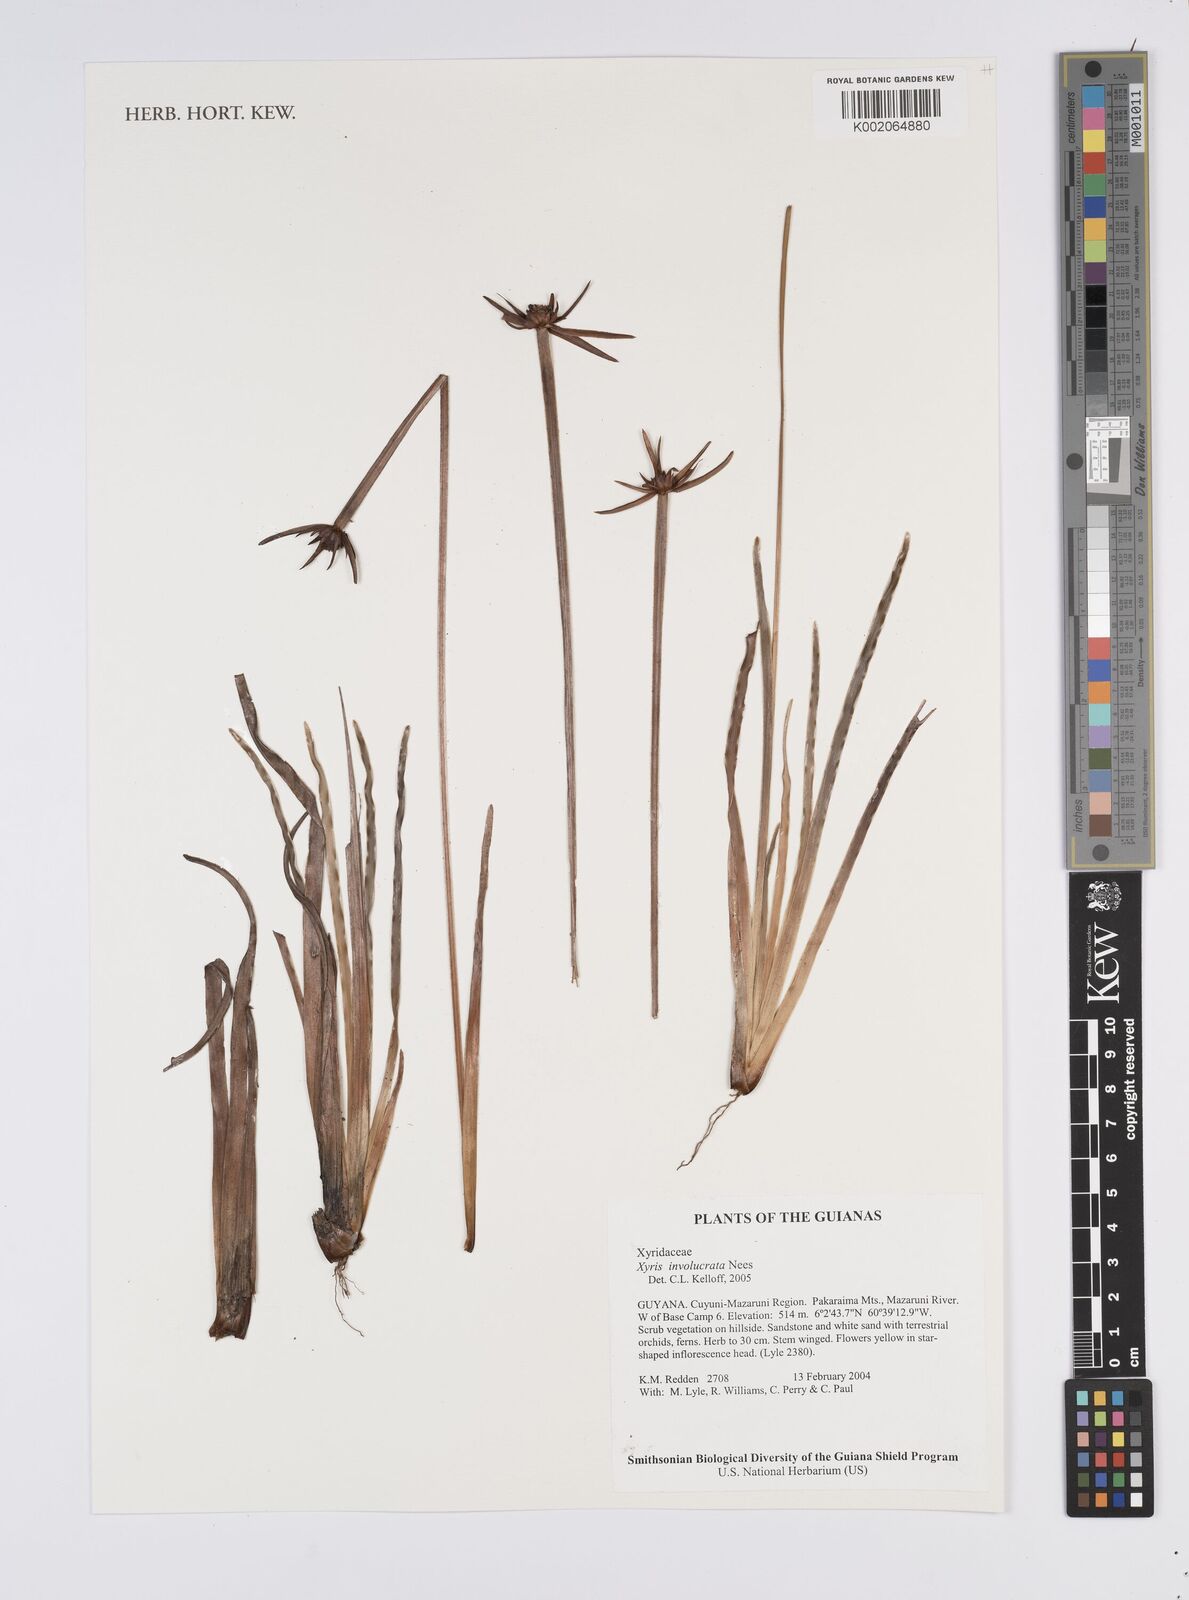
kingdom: Plantae
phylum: Tracheophyta
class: Liliopsida
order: Poales
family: Xyridaceae
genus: Xyris
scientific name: Xyris involucrata
